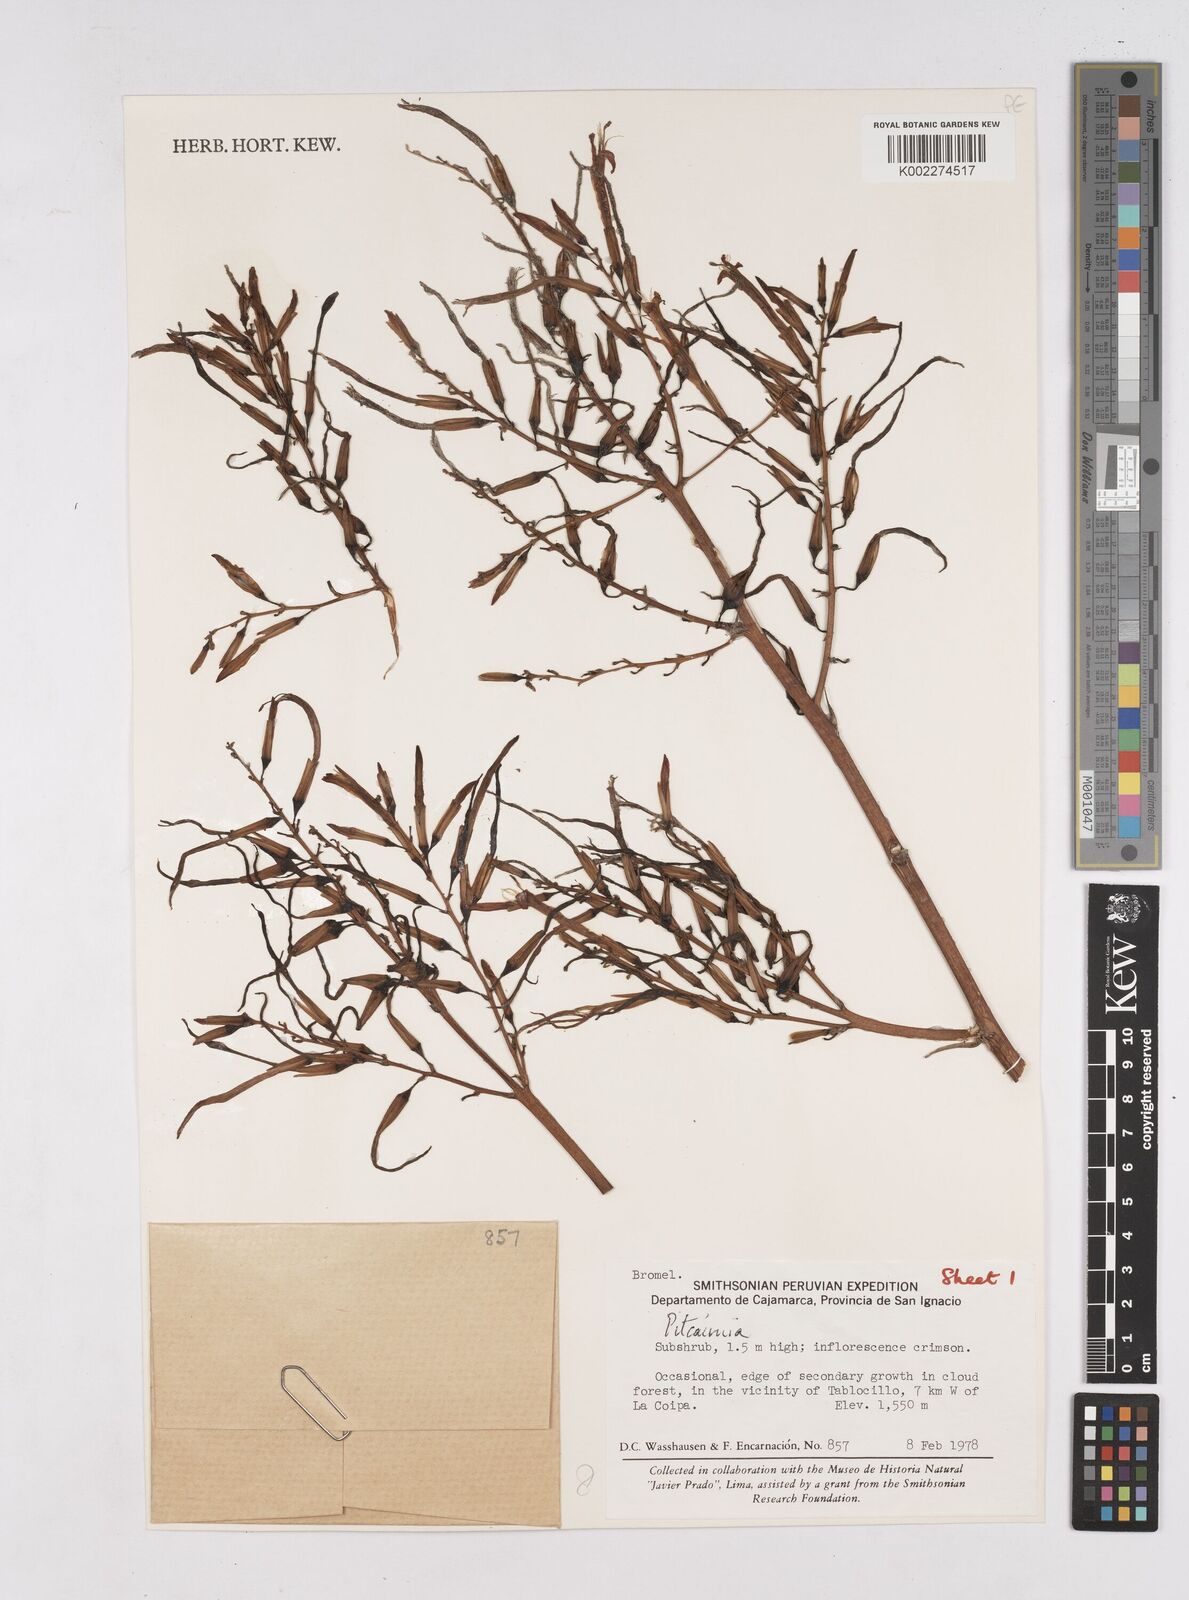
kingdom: Plantae
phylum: Tracheophyta
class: Liliopsida
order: Poales
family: Bromeliaceae
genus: Pitcairnia
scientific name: Pitcairnia
